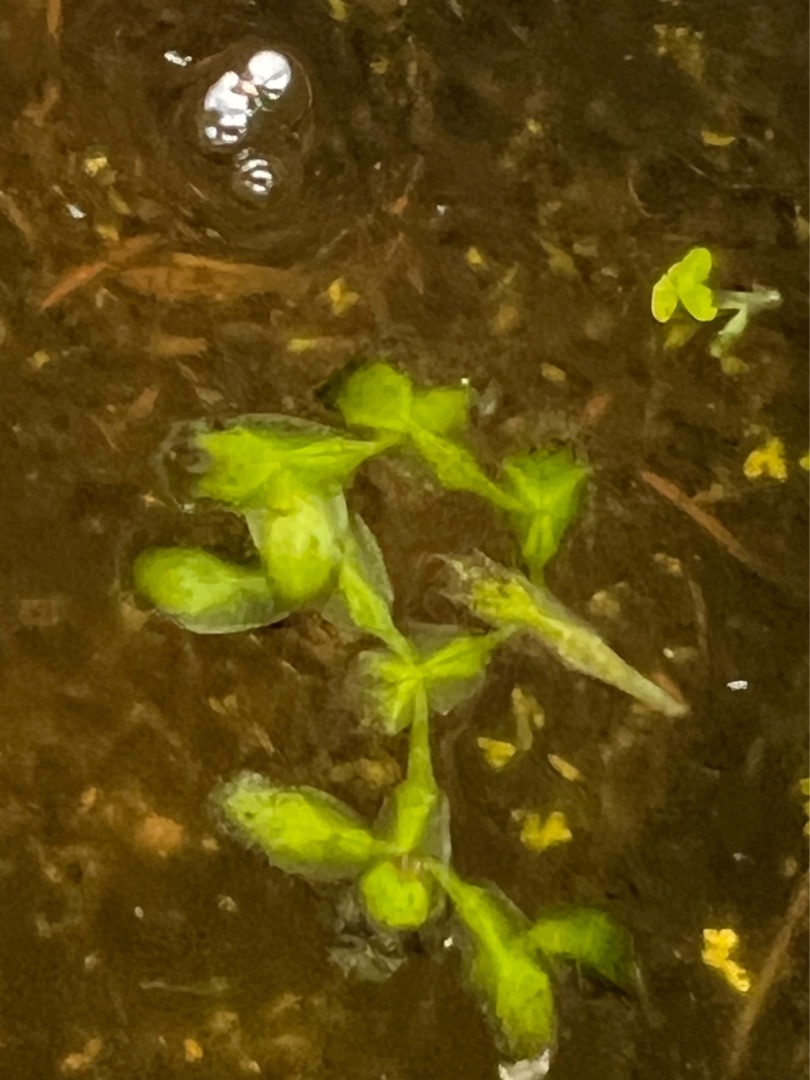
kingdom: Plantae
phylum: Tracheophyta
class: Liliopsida
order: Alismatales
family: Araceae
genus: Lemna
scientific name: Lemna trisulca
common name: Kors-andemad
